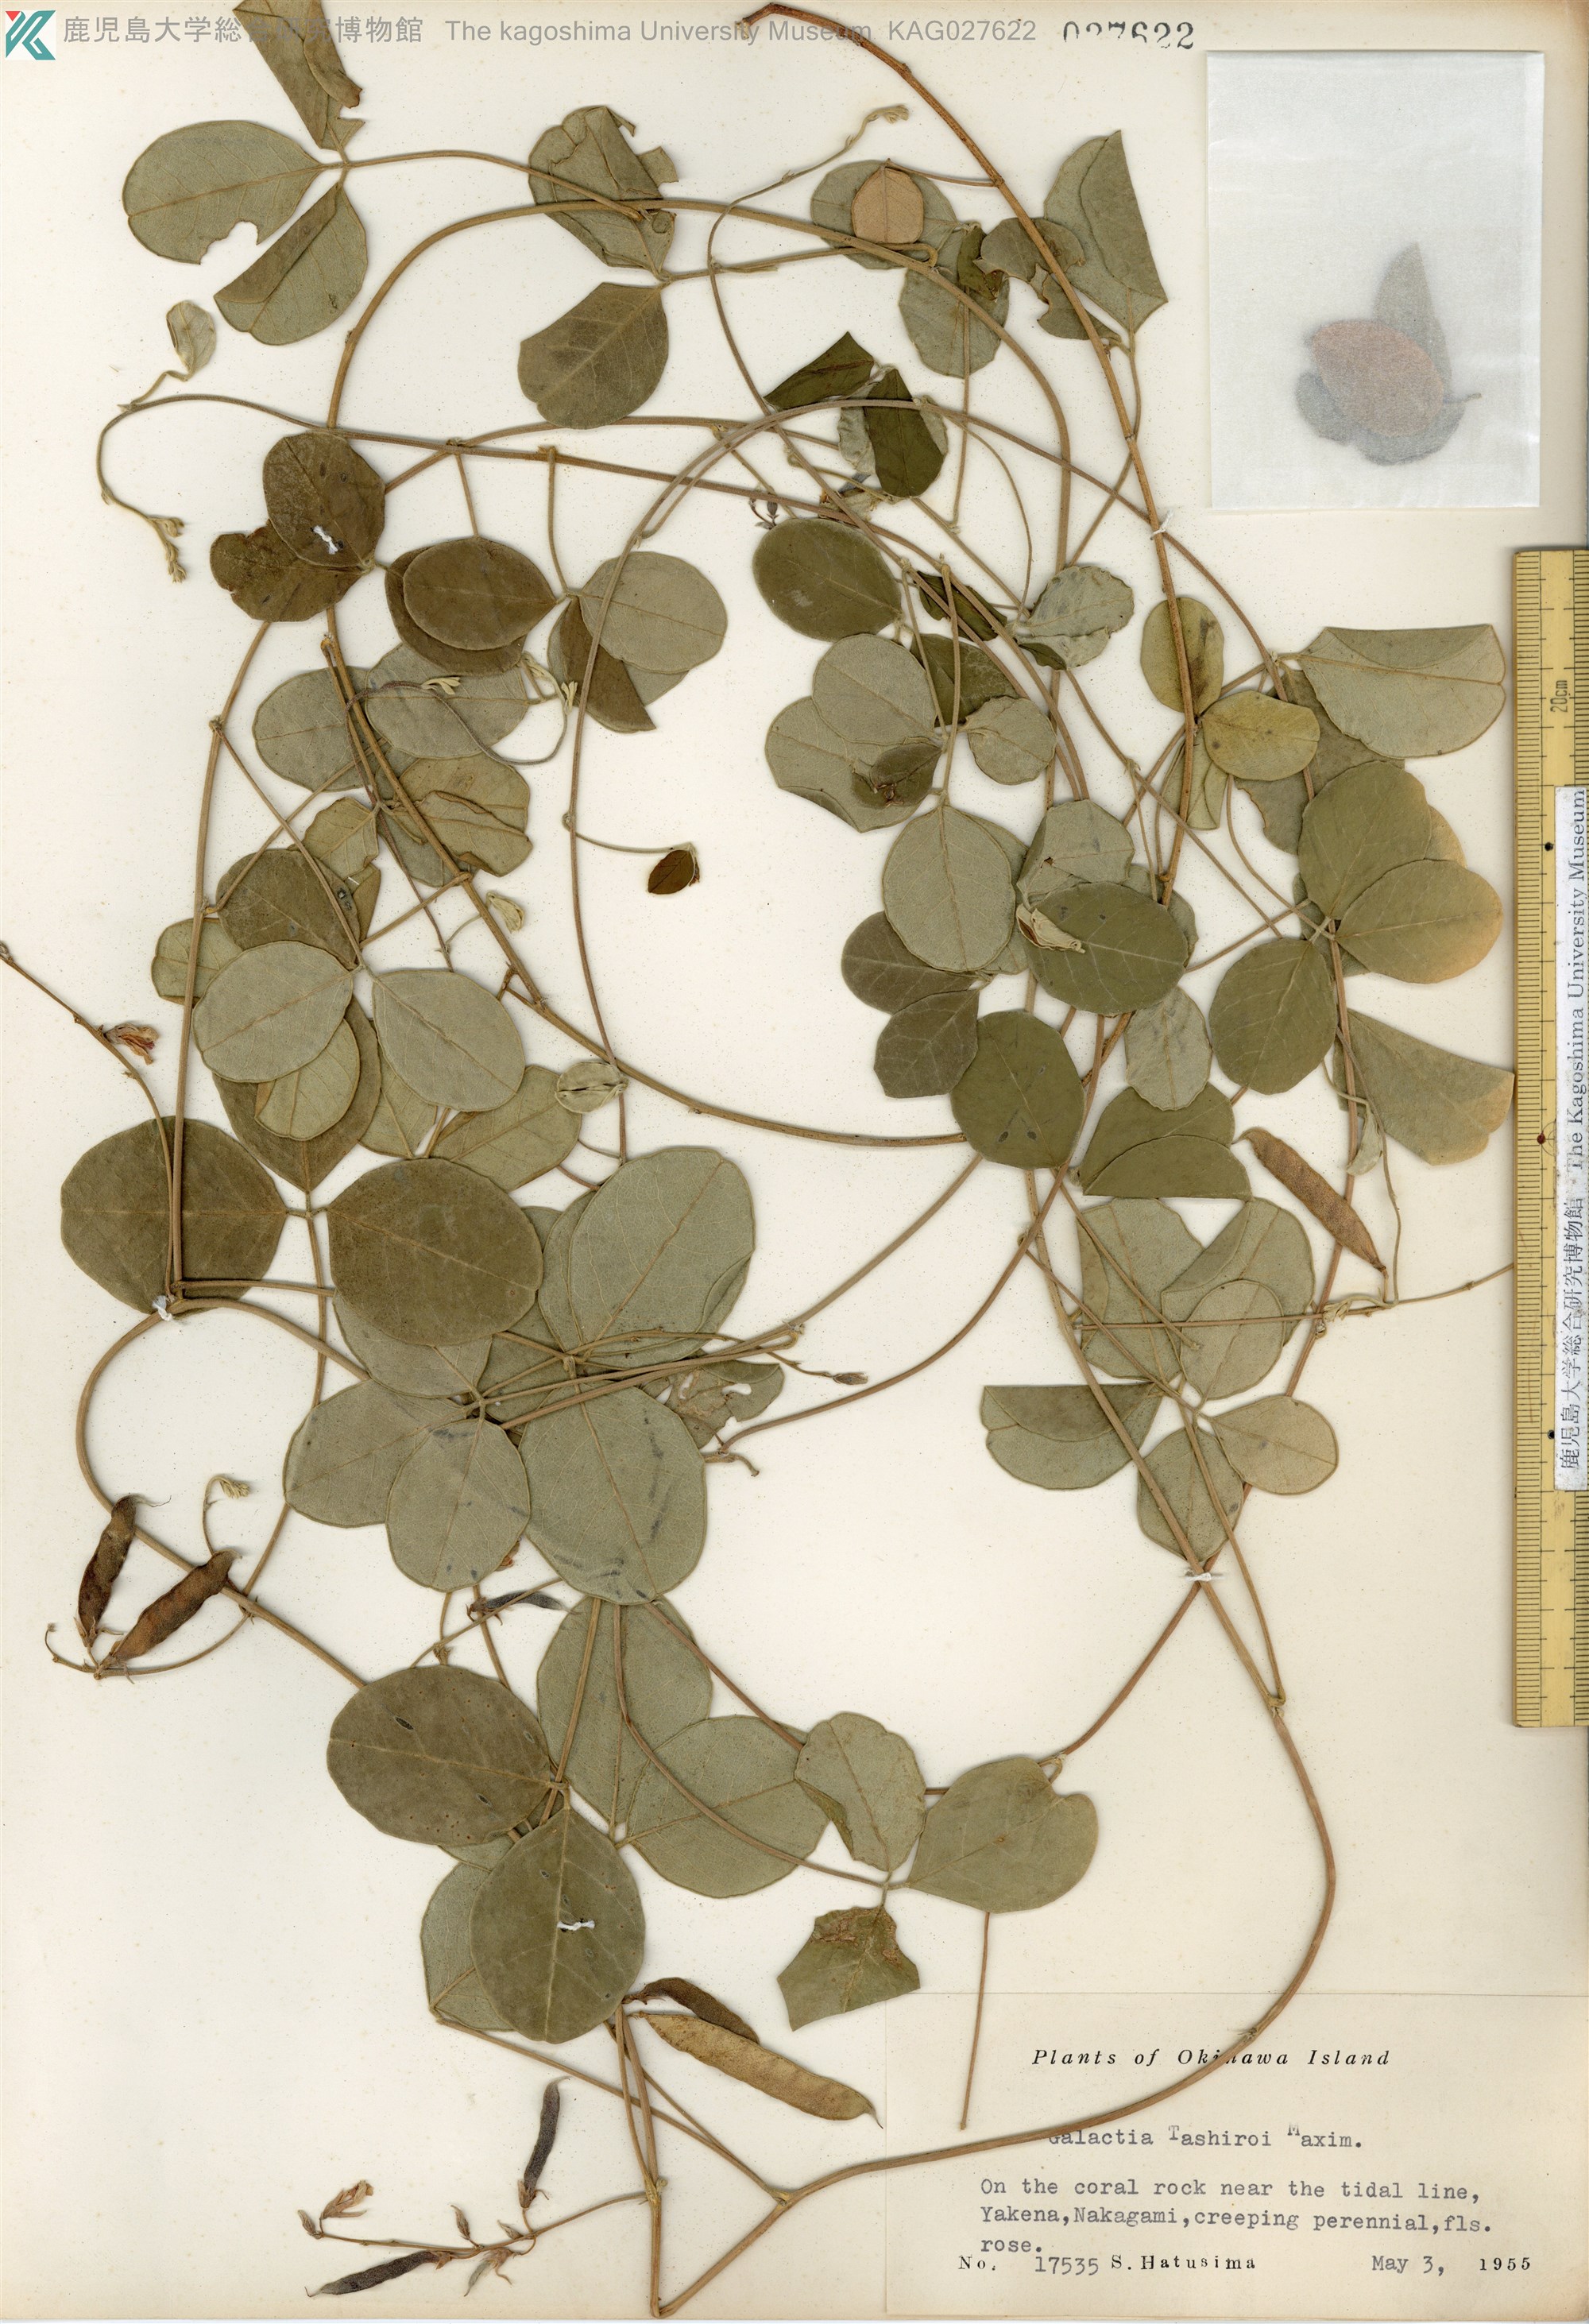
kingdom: Plantae
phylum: Tracheophyta
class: Magnoliopsida
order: Fabales
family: Fabaceae
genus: Galactia
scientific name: Galactia tashiroi
